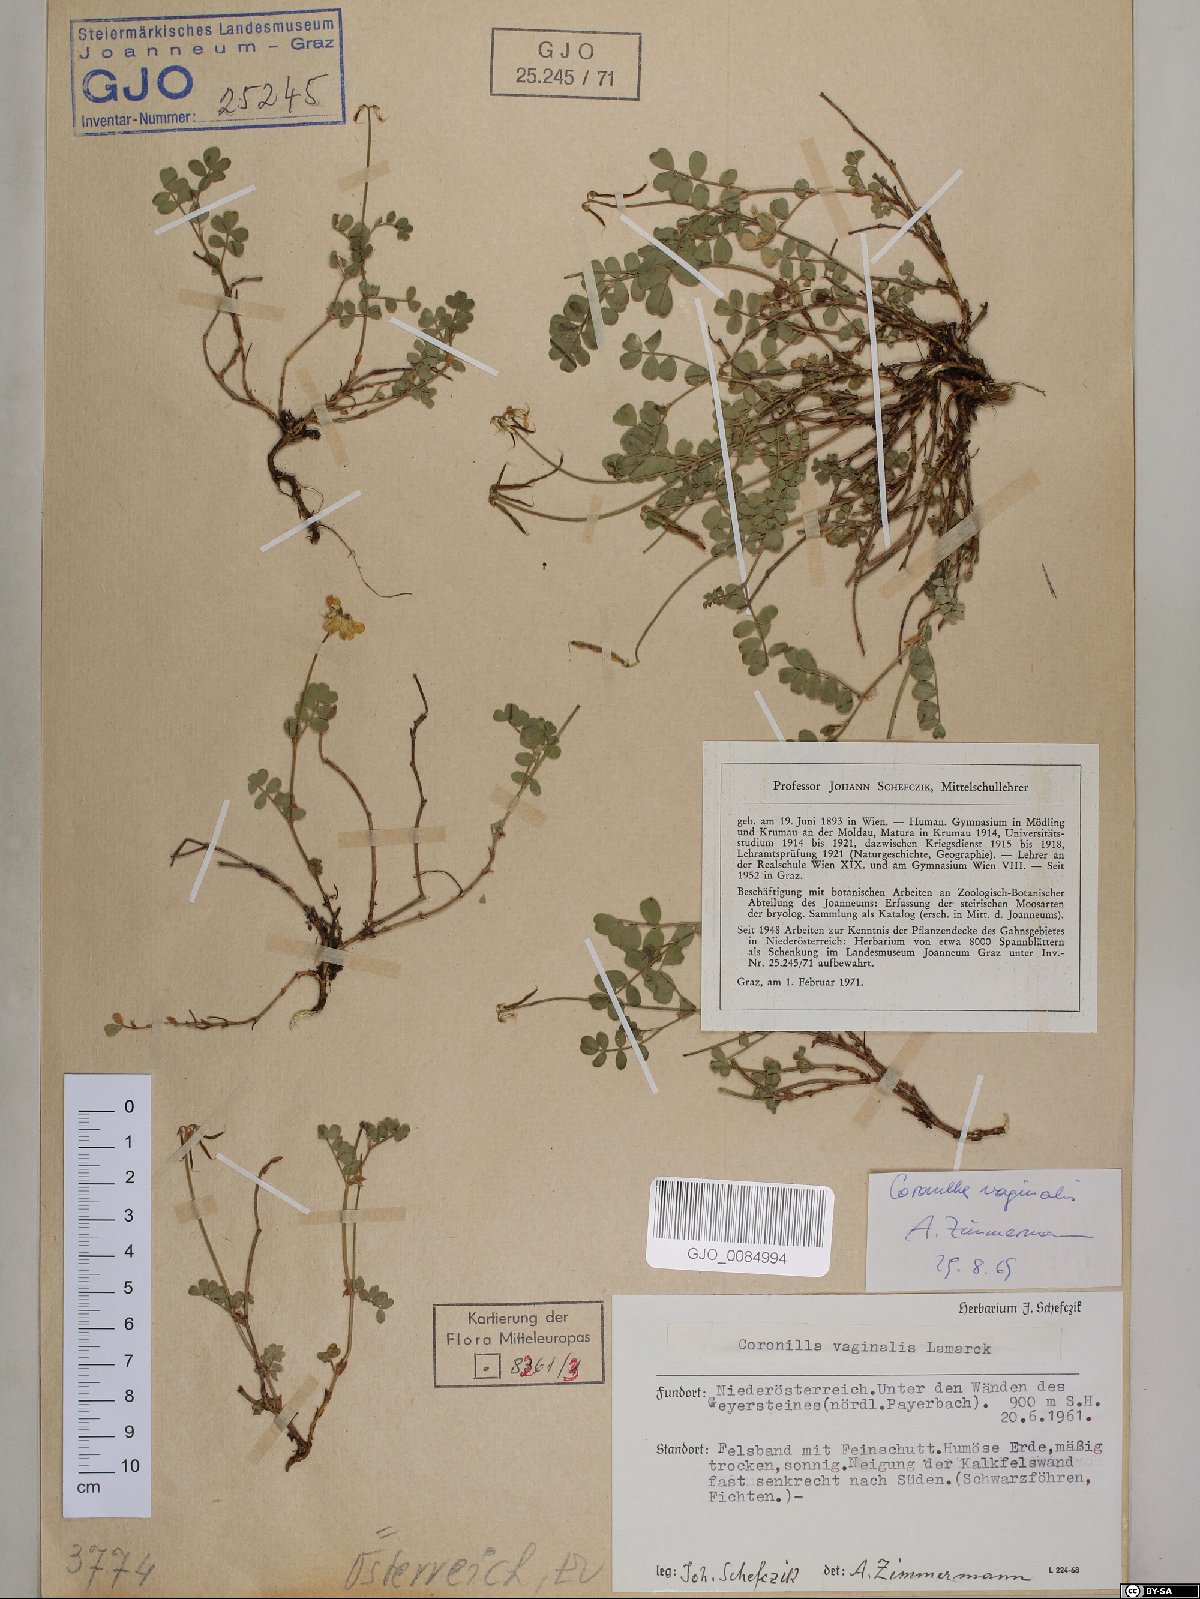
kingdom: Plantae
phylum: Tracheophyta
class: Magnoliopsida
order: Fabales
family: Fabaceae
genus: Coronilla
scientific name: Coronilla vaginalis
